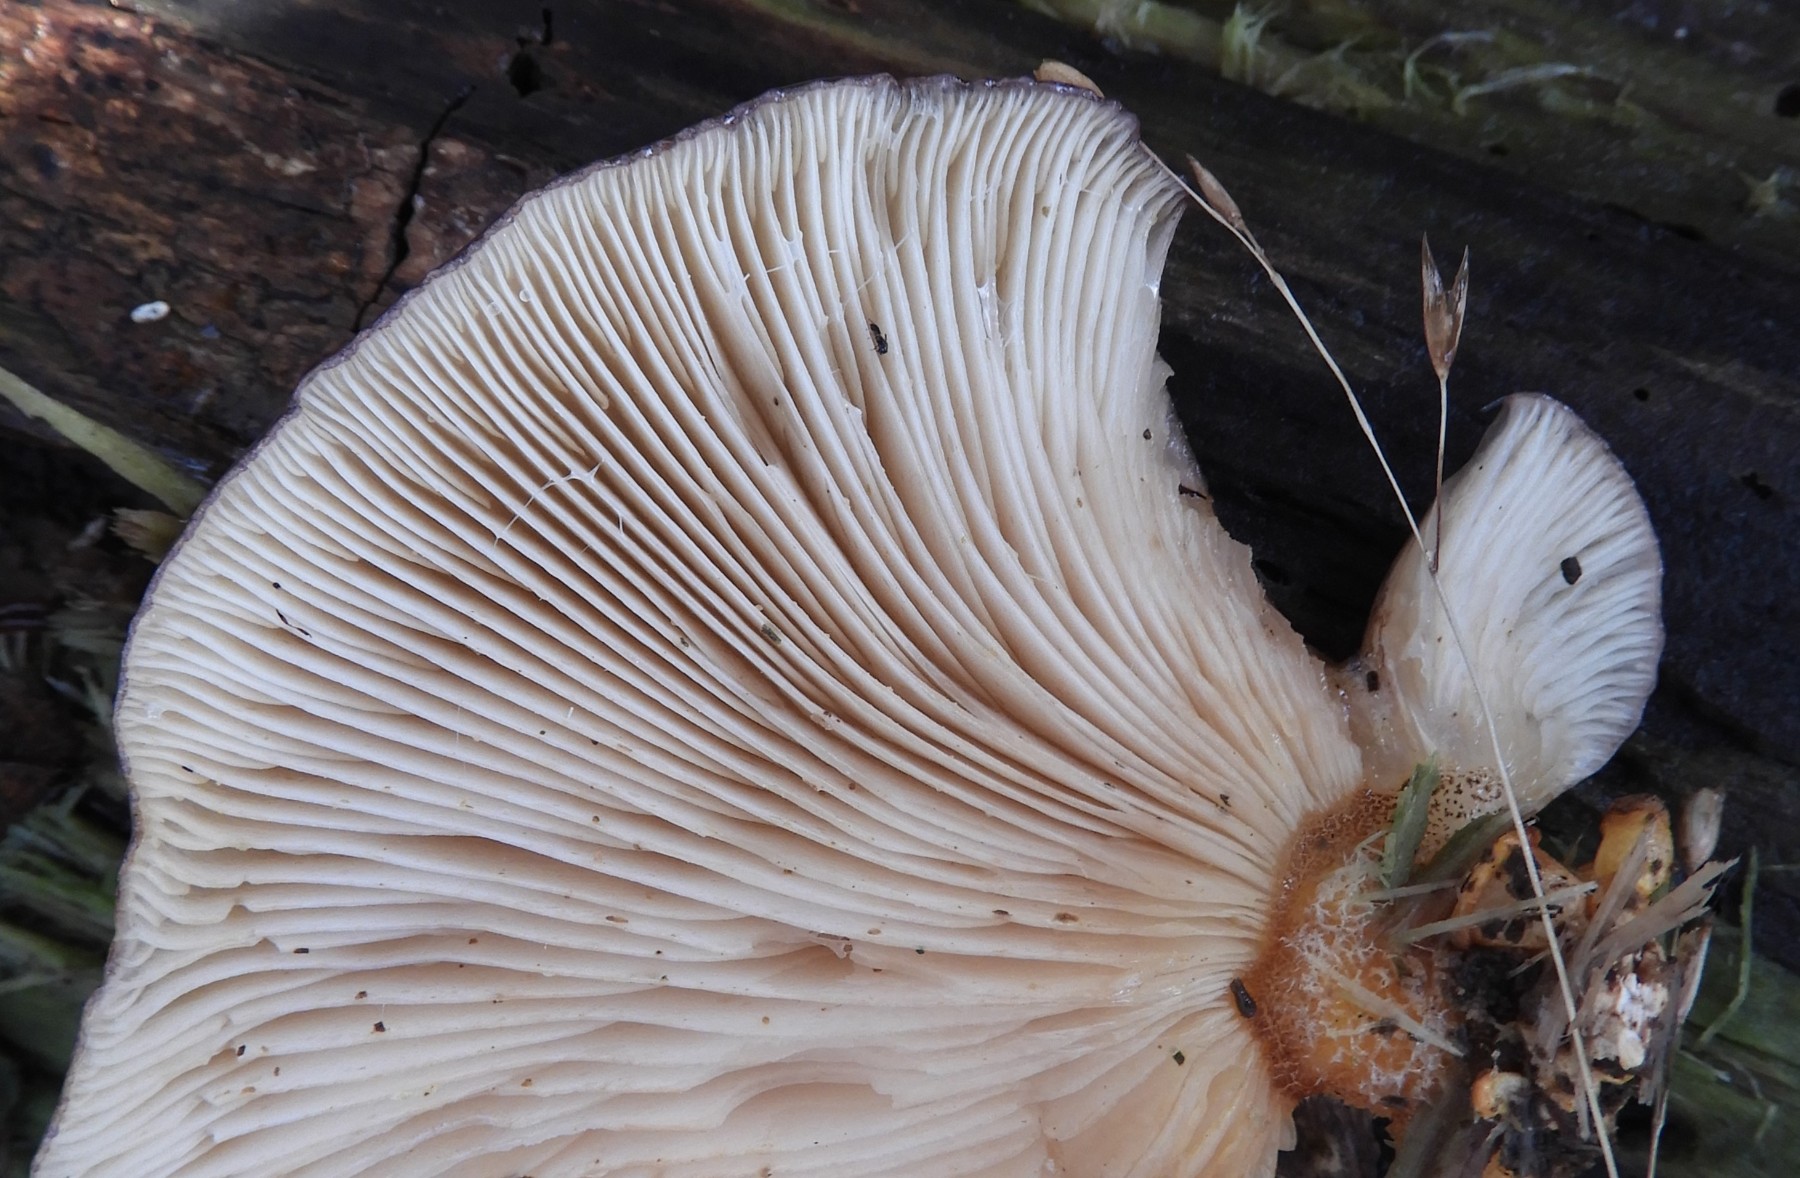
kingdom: Fungi
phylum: Basidiomycota
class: Agaricomycetes
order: Agaricales
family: Sarcomyxaceae
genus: Sarcomyxa
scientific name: Sarcomyxa serotina
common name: gummihat
